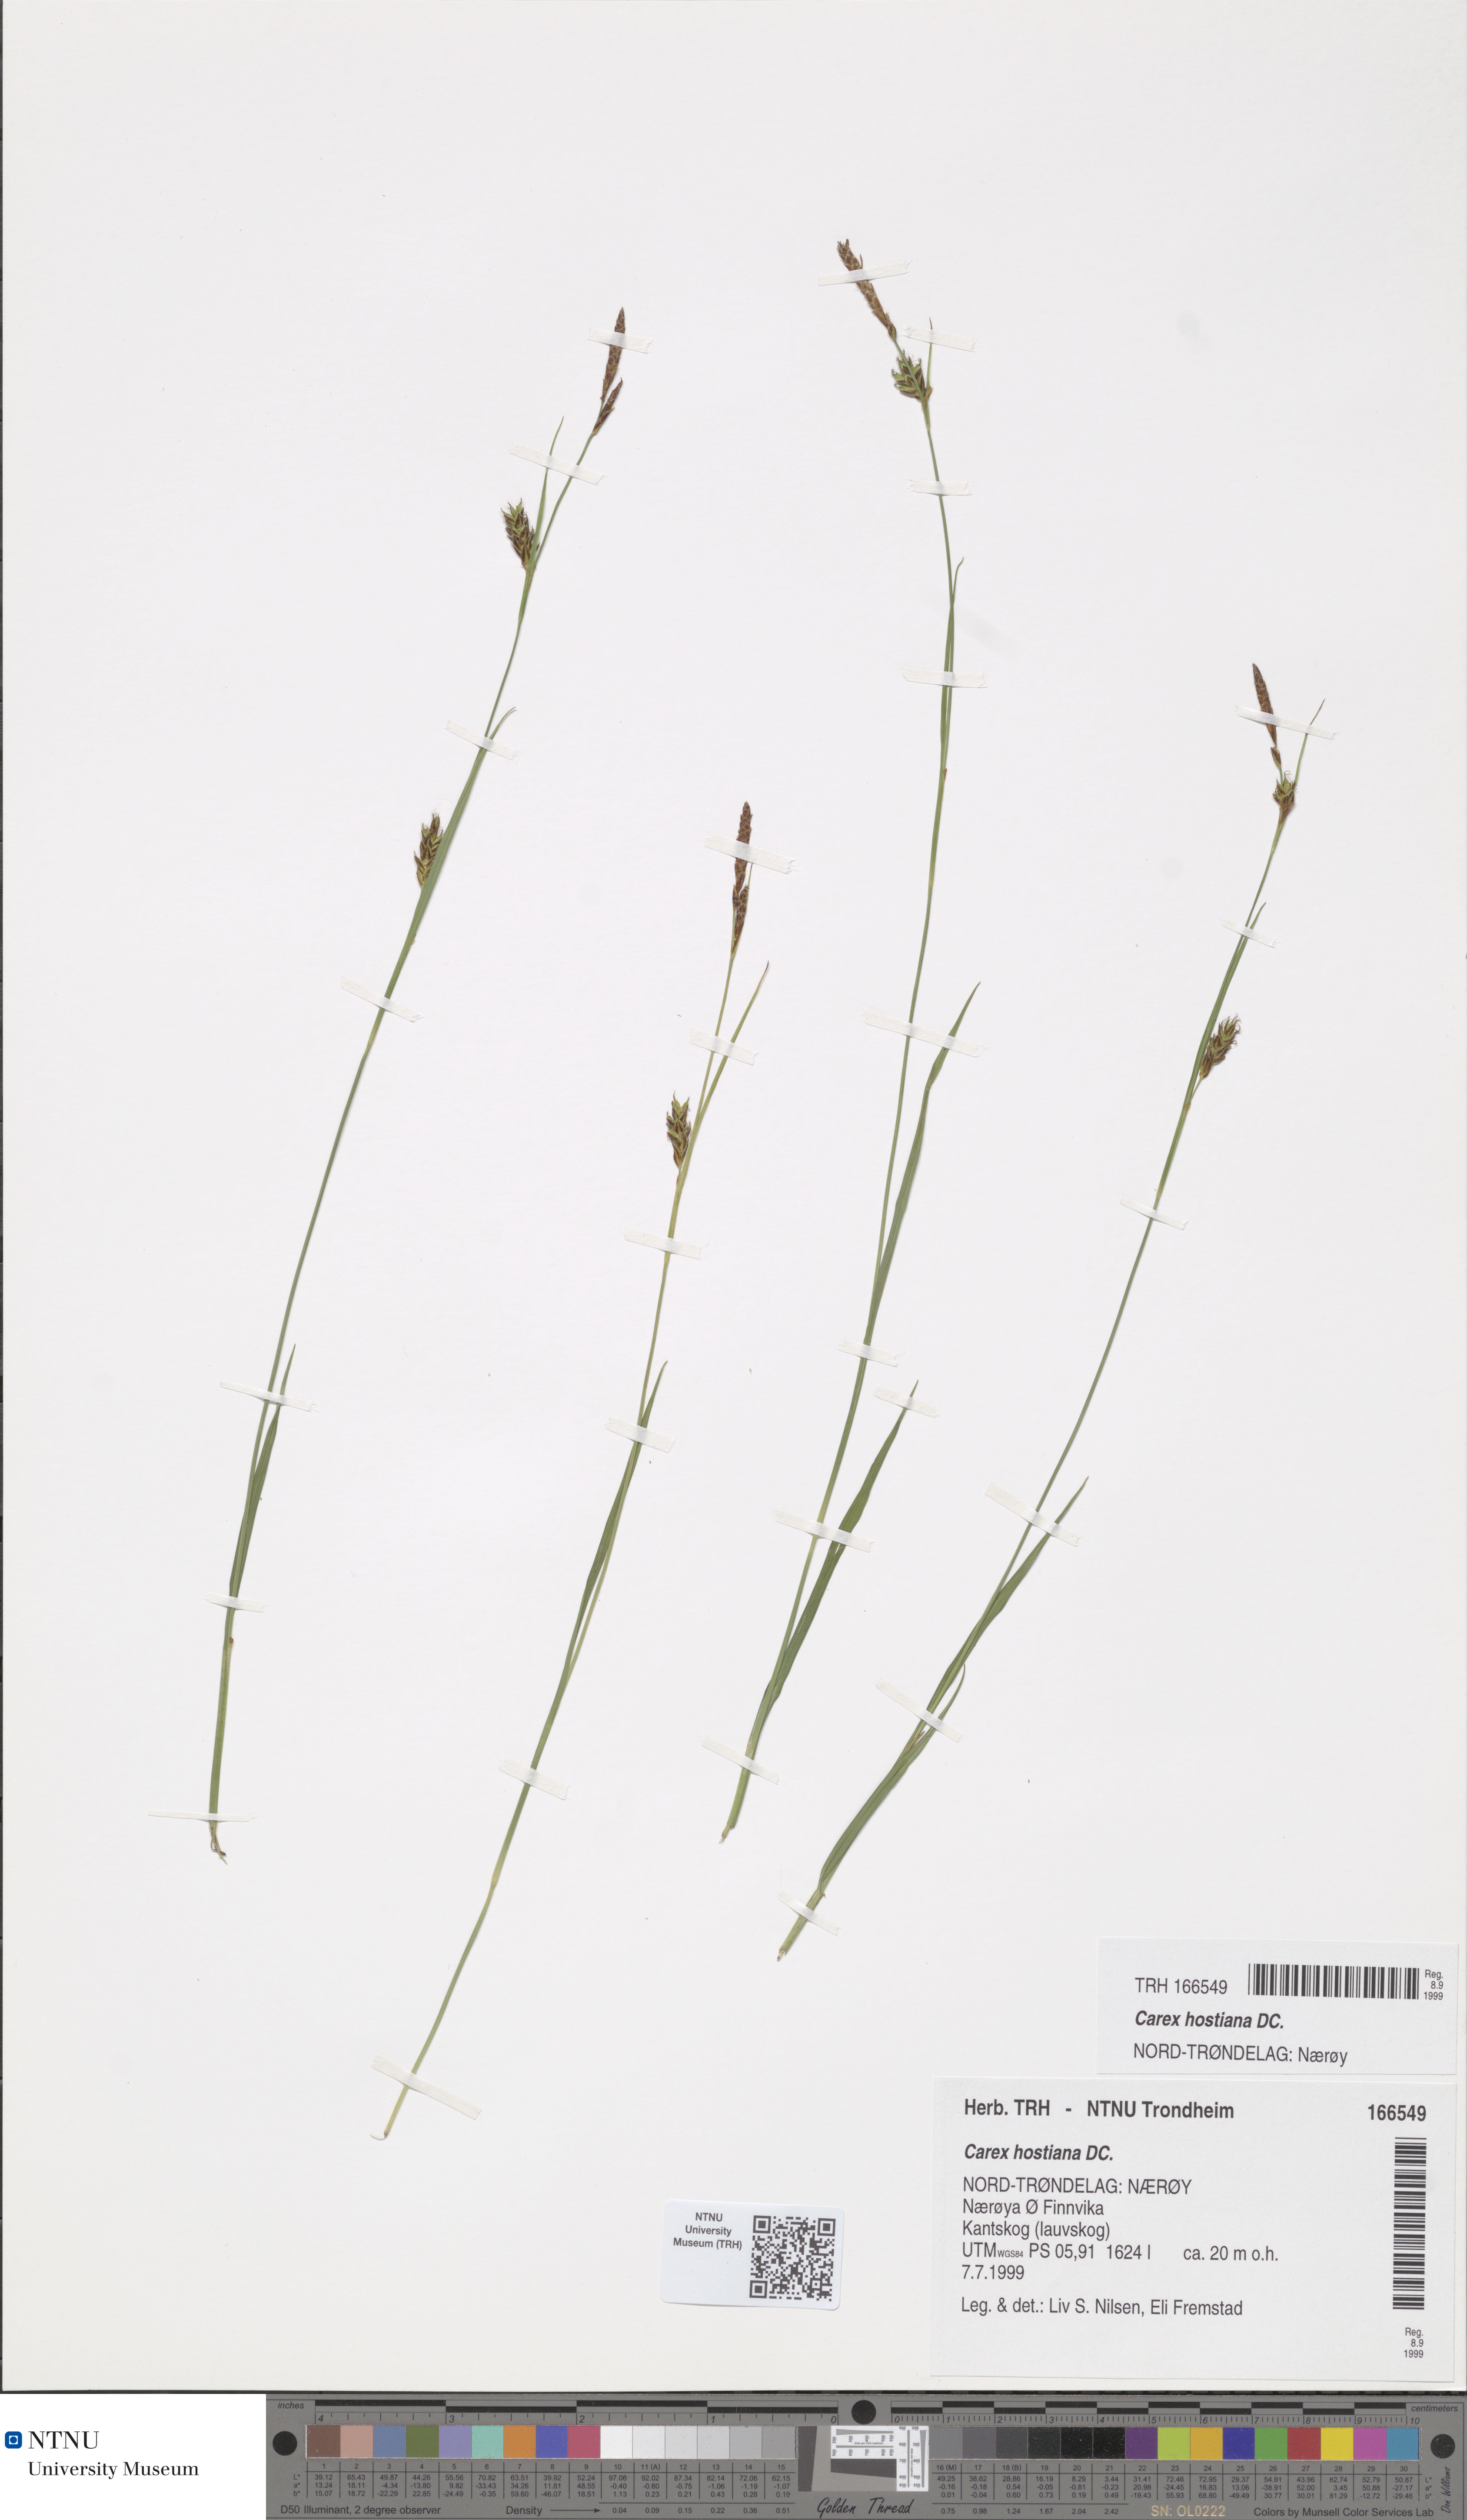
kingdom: Plantae
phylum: Tracheophyta
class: Liliopsida
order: Poales
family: Cyperaceae
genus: Carex
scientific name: Carex hostiana
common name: Tawny sedge
